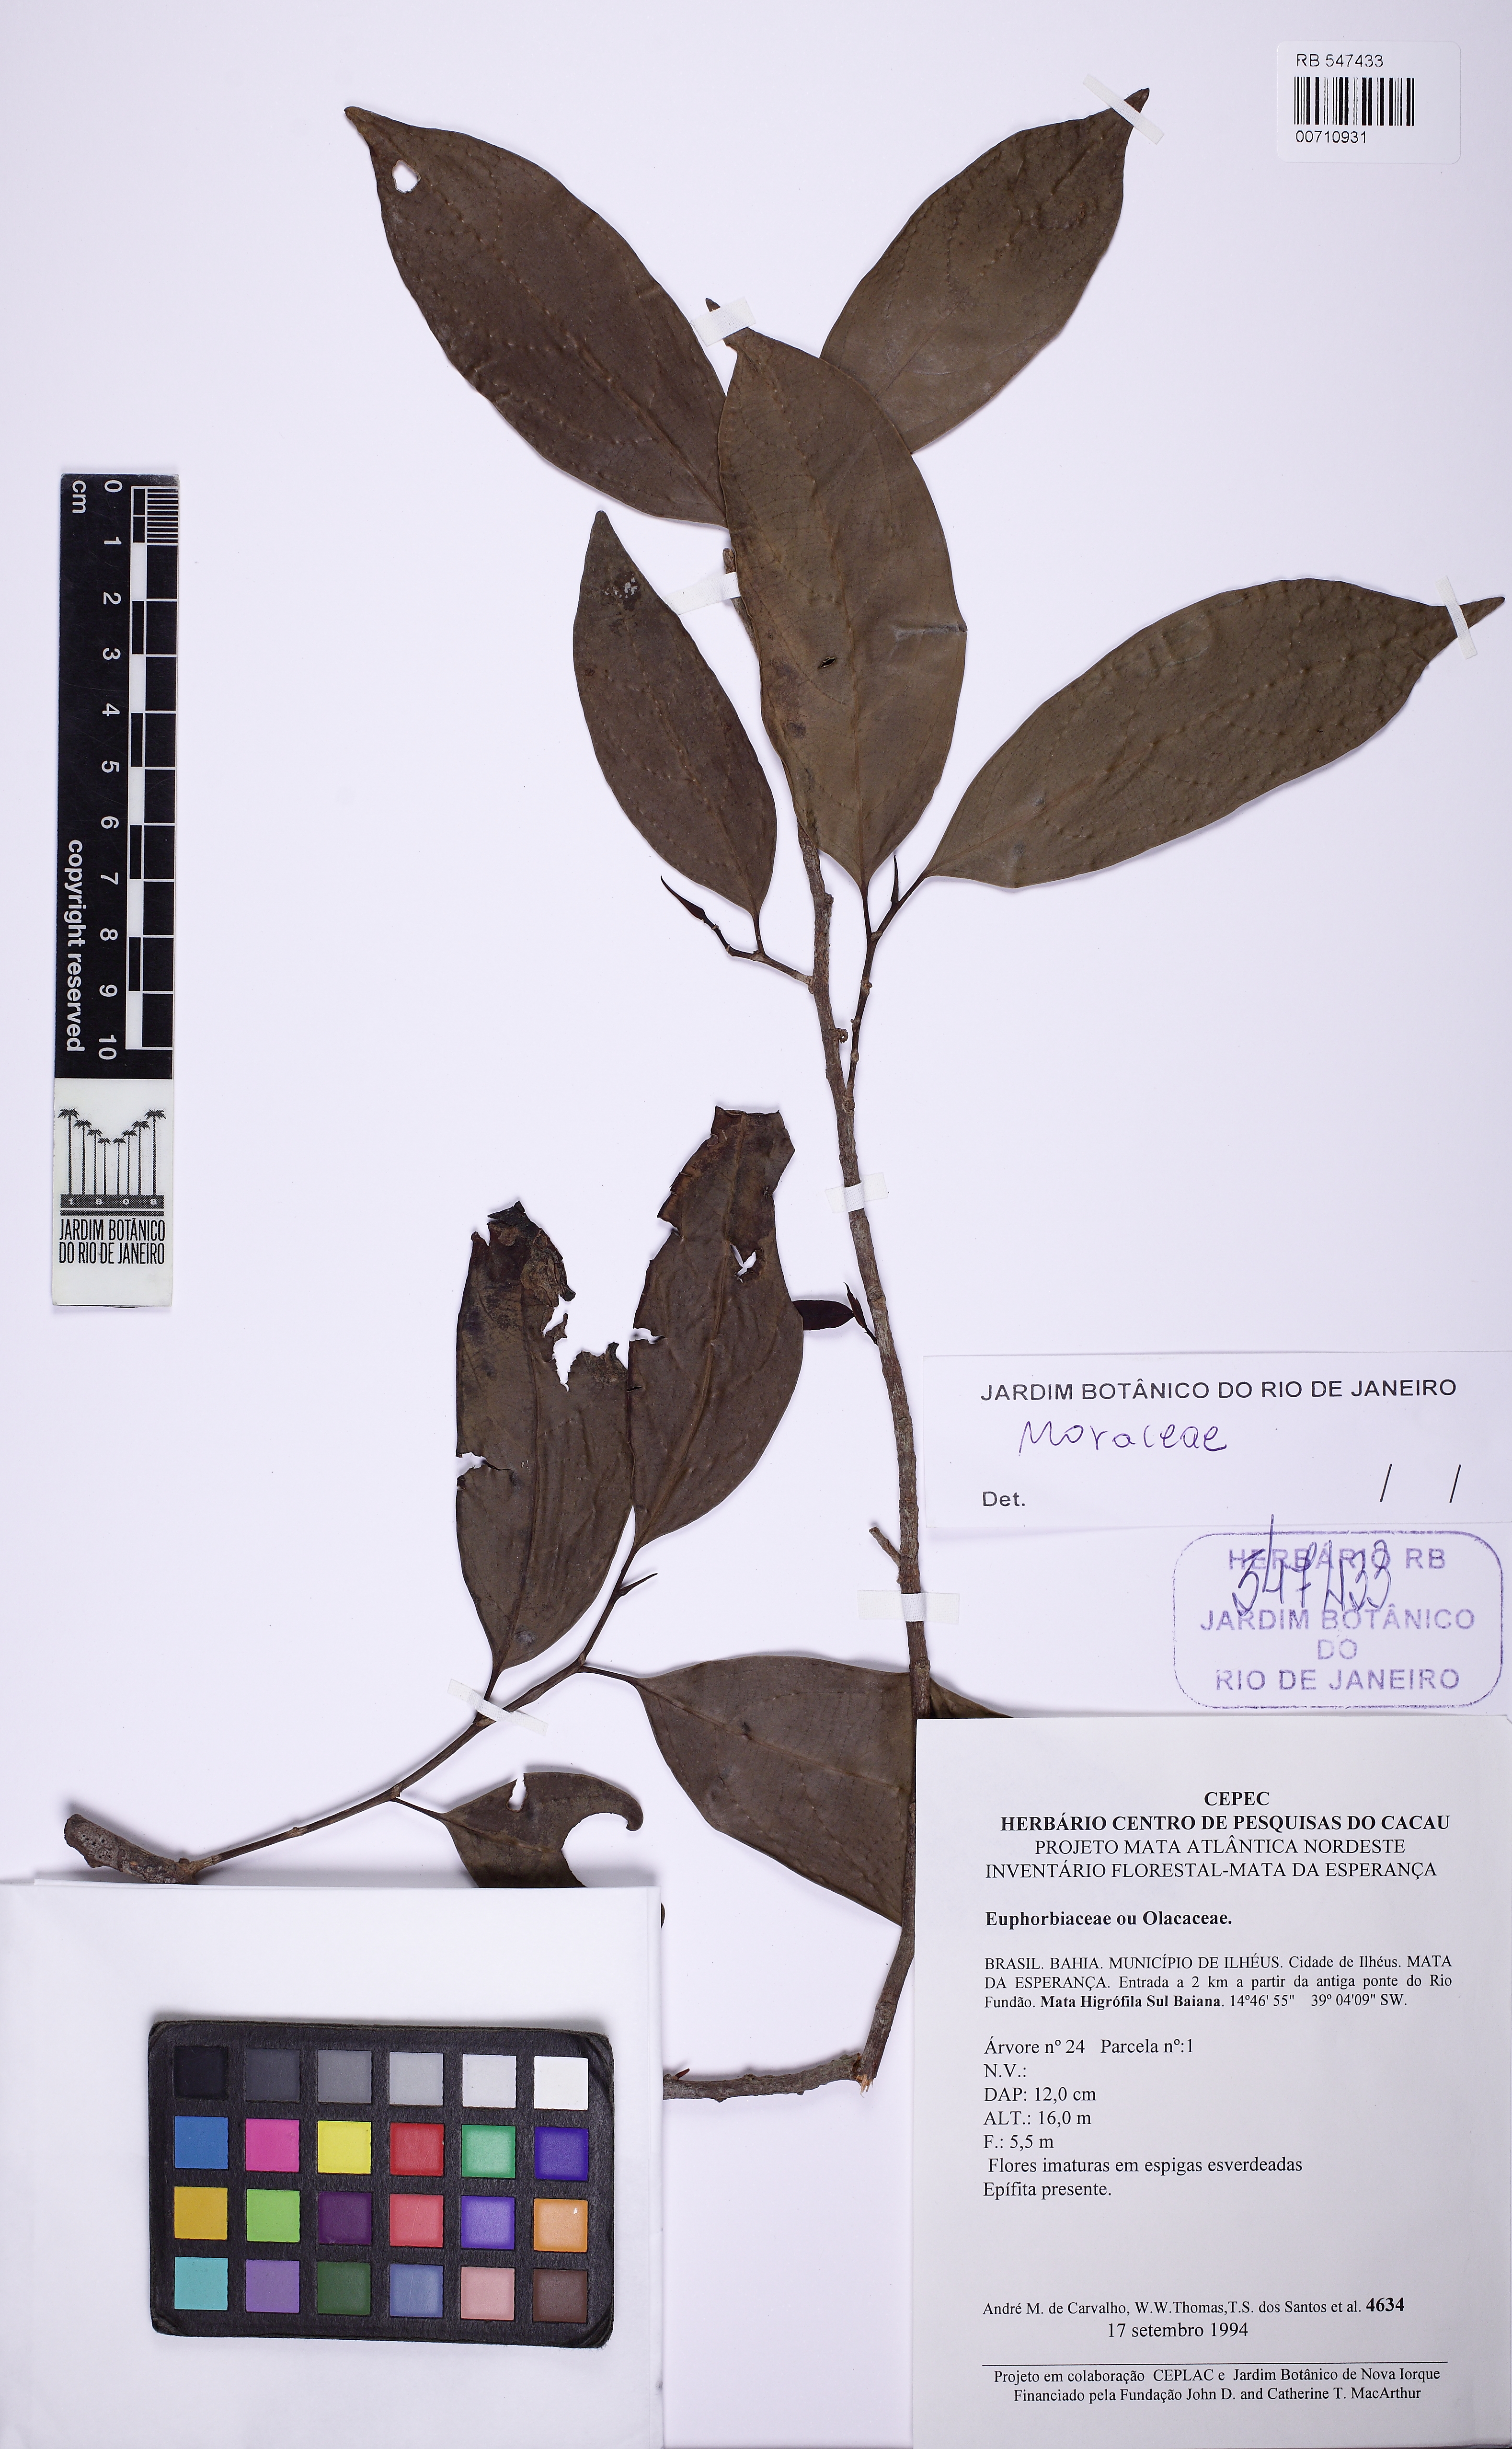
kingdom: Plantae
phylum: Tracheophyta
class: Magnoliopsida
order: Rosales
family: Moraceae
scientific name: Moraceae
